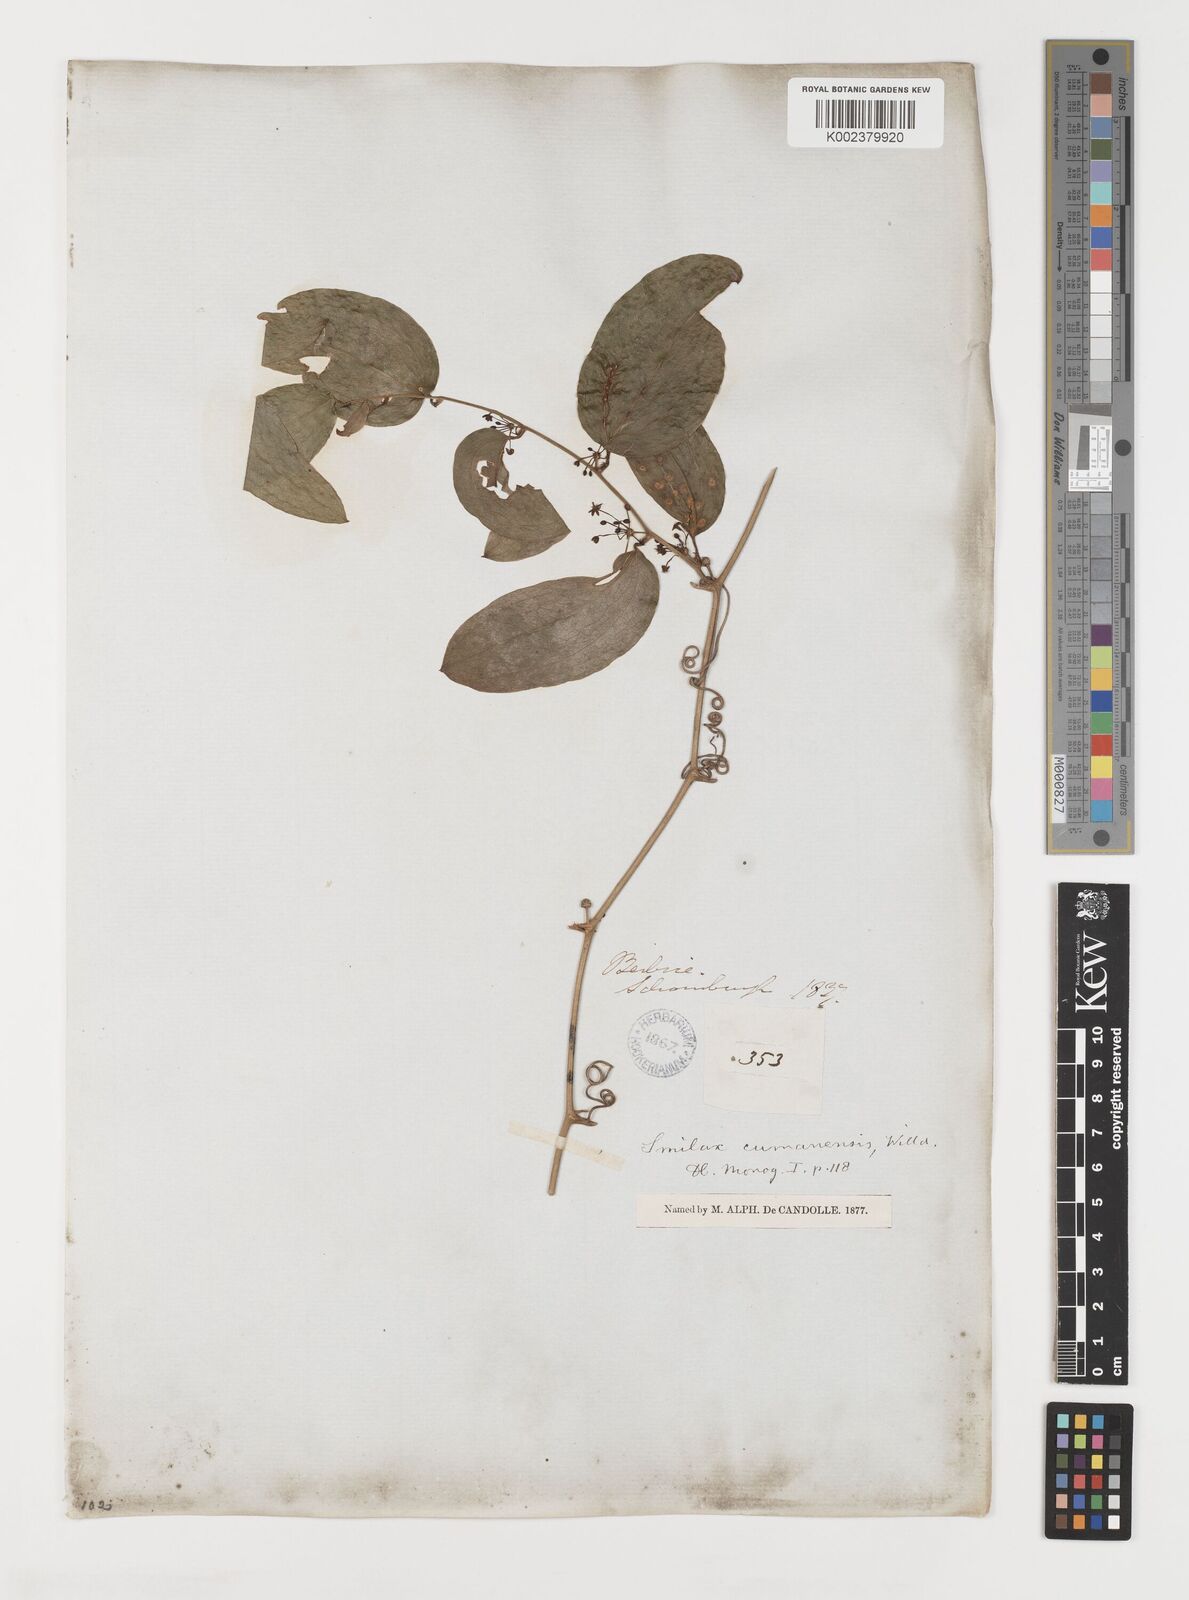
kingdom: Plantae
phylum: Tracheophyta
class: Liliopsida
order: Liliales
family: Smilacaceae
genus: Smilax
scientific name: Smilax oblongata
